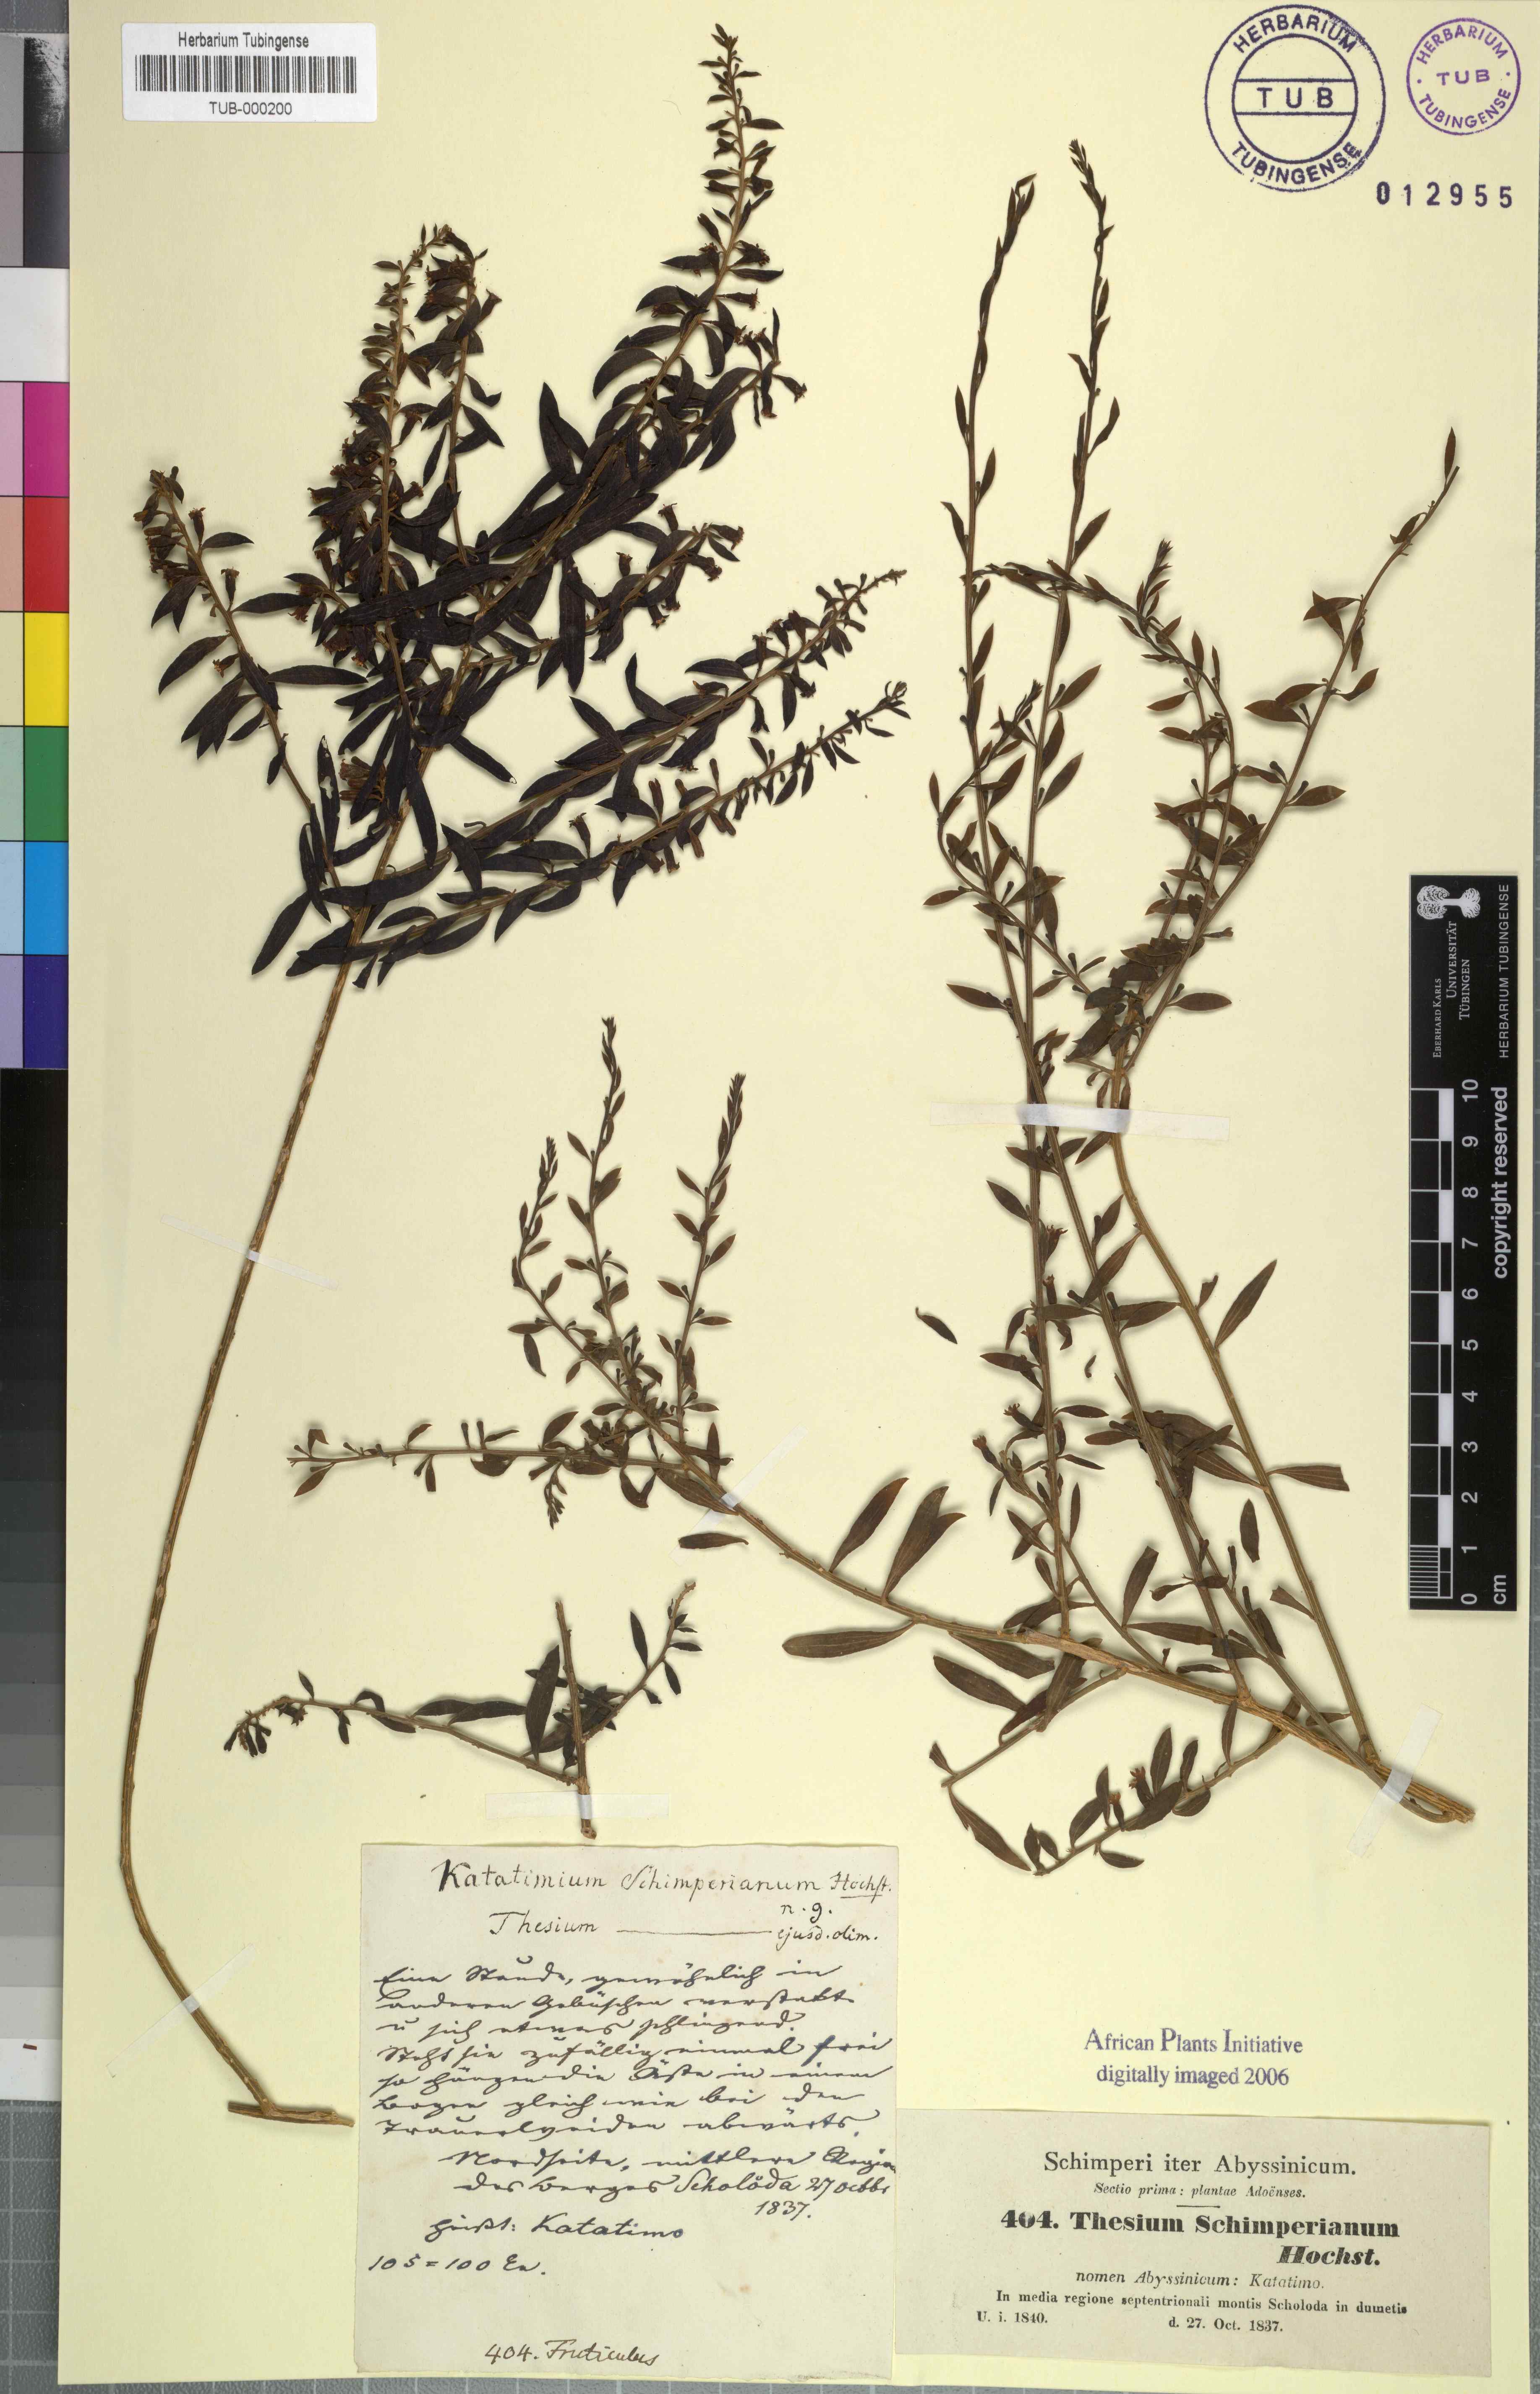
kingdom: Plantae
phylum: Tracheophyta
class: Magnoliopsida
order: Santalales
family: Thesiaceae
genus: Osyridicarpos
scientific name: Osyridicarpos schimperianus
